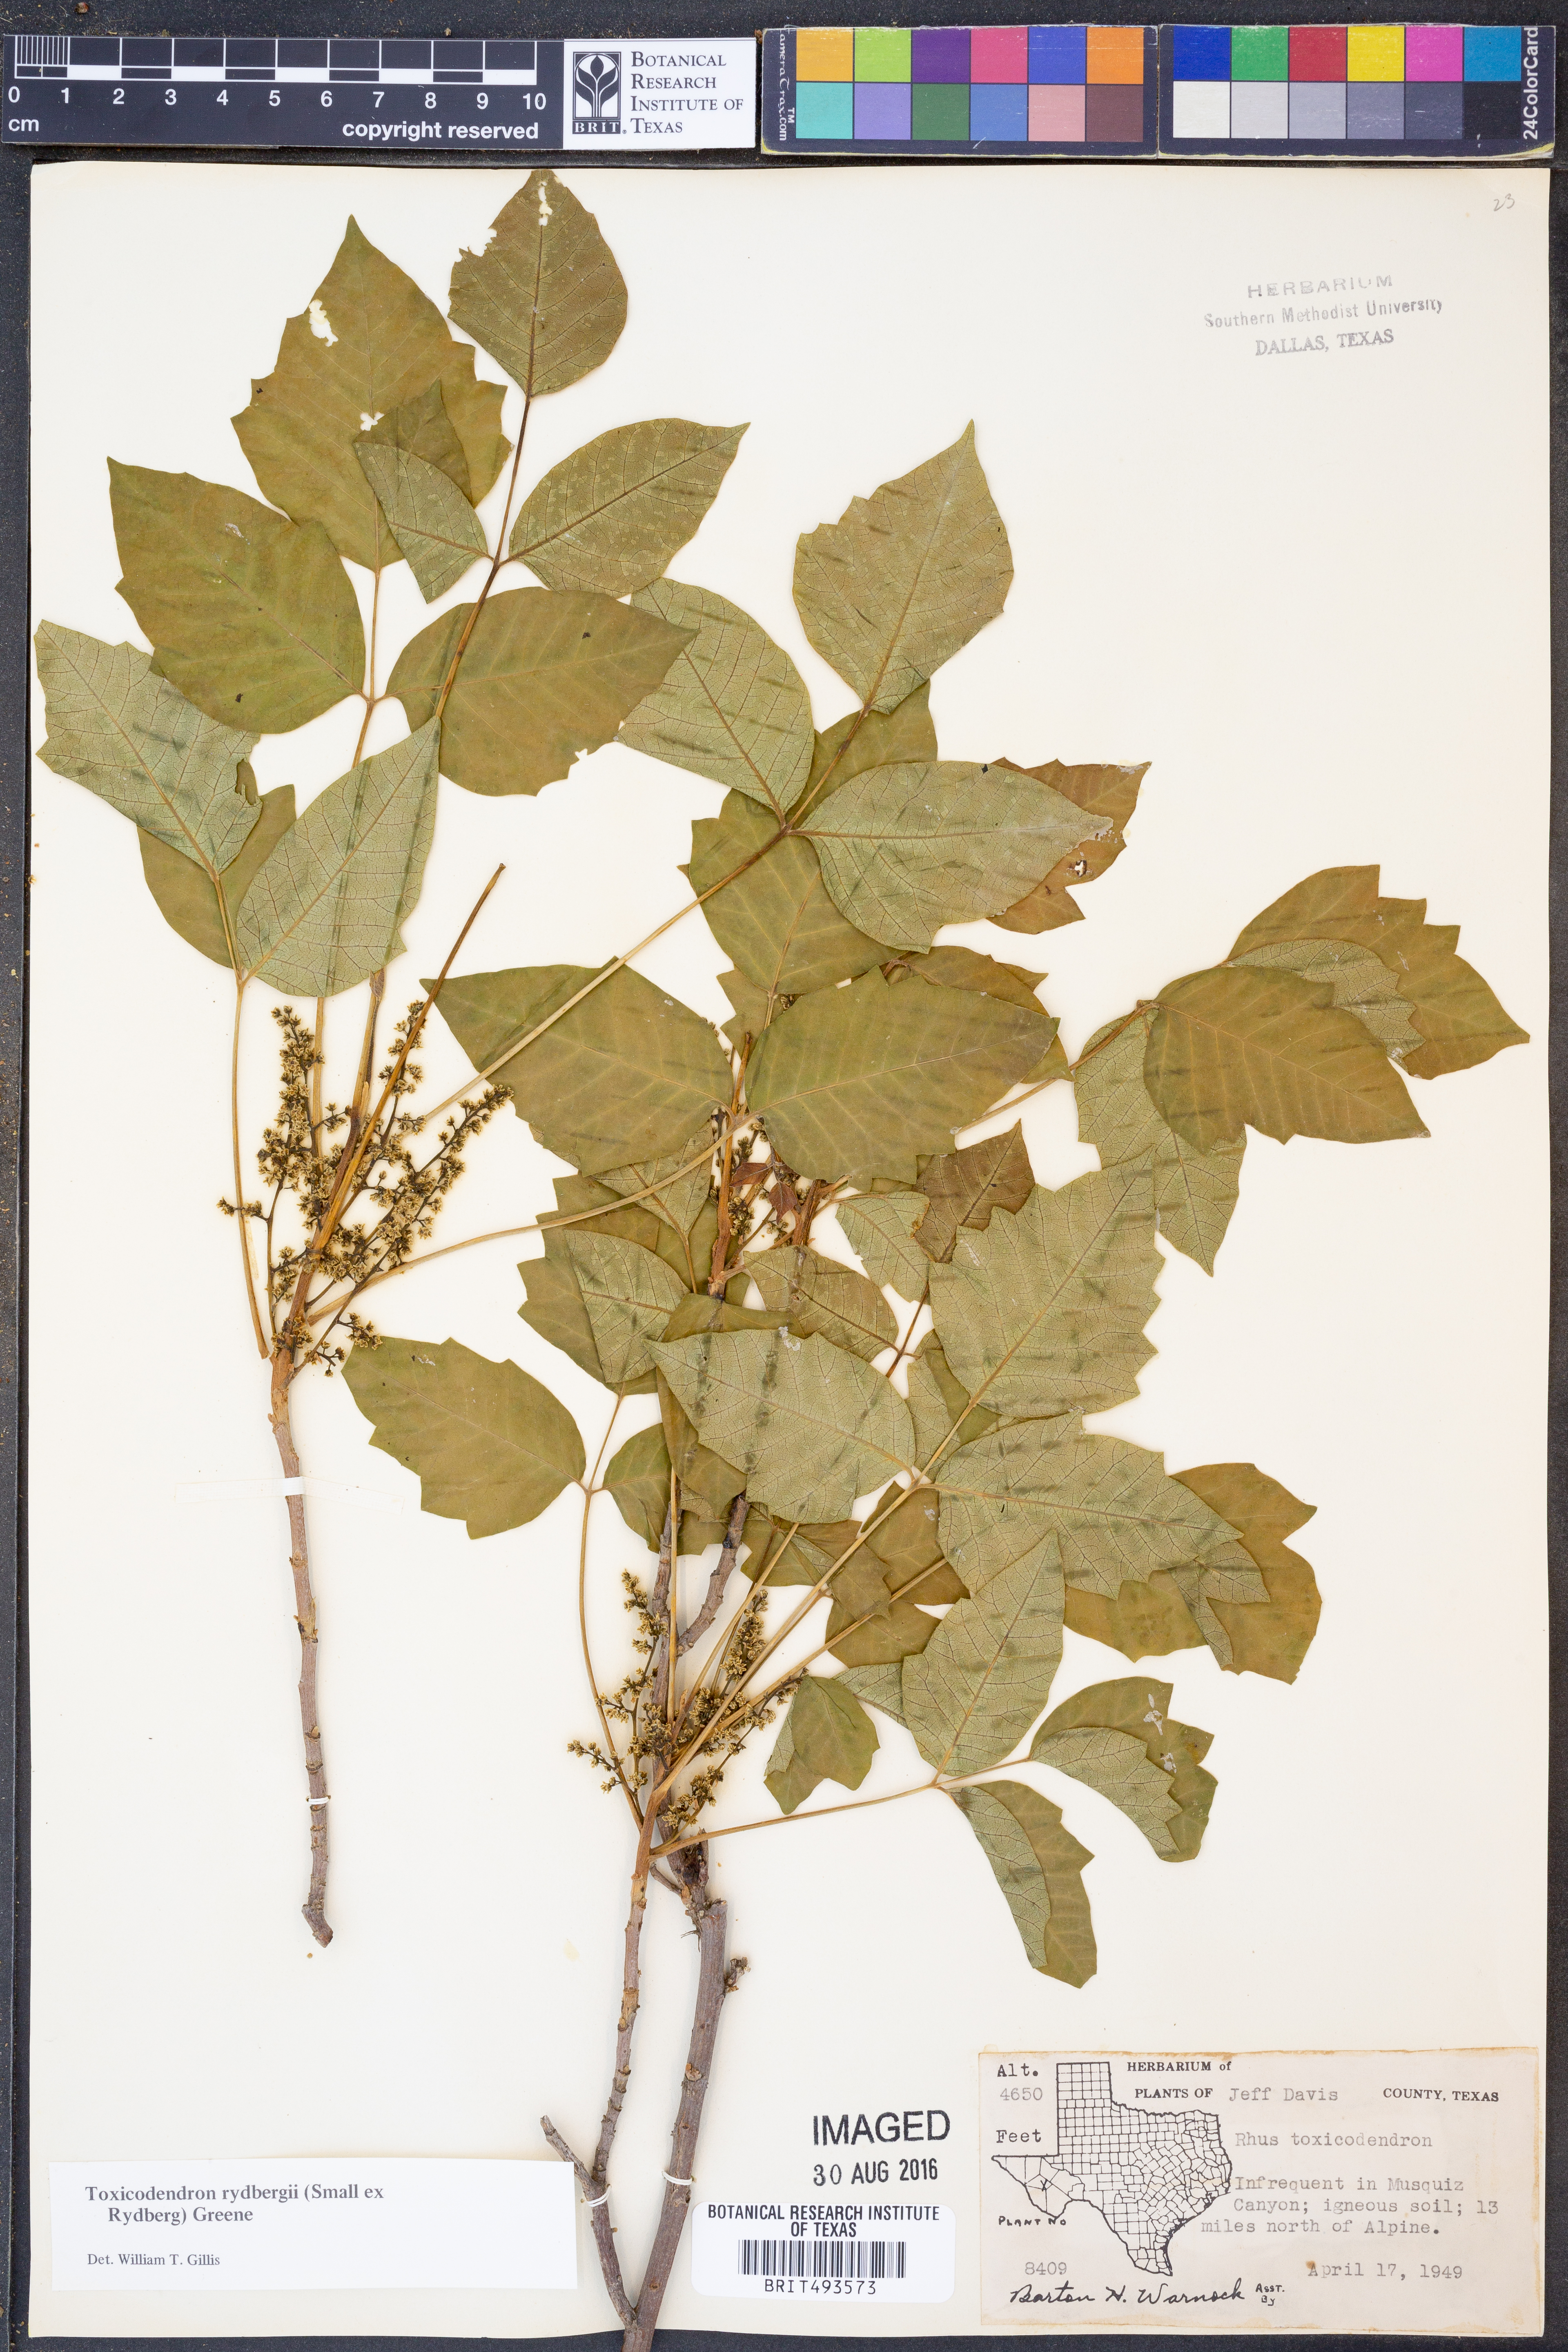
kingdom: Plantae
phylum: Tracheophyta
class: Magnoliopsida
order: Sapindales
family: Anacardiaceae
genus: Toxicodendron
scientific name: Toxicodendron rydbergii
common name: Rydberg's poison-ivy
